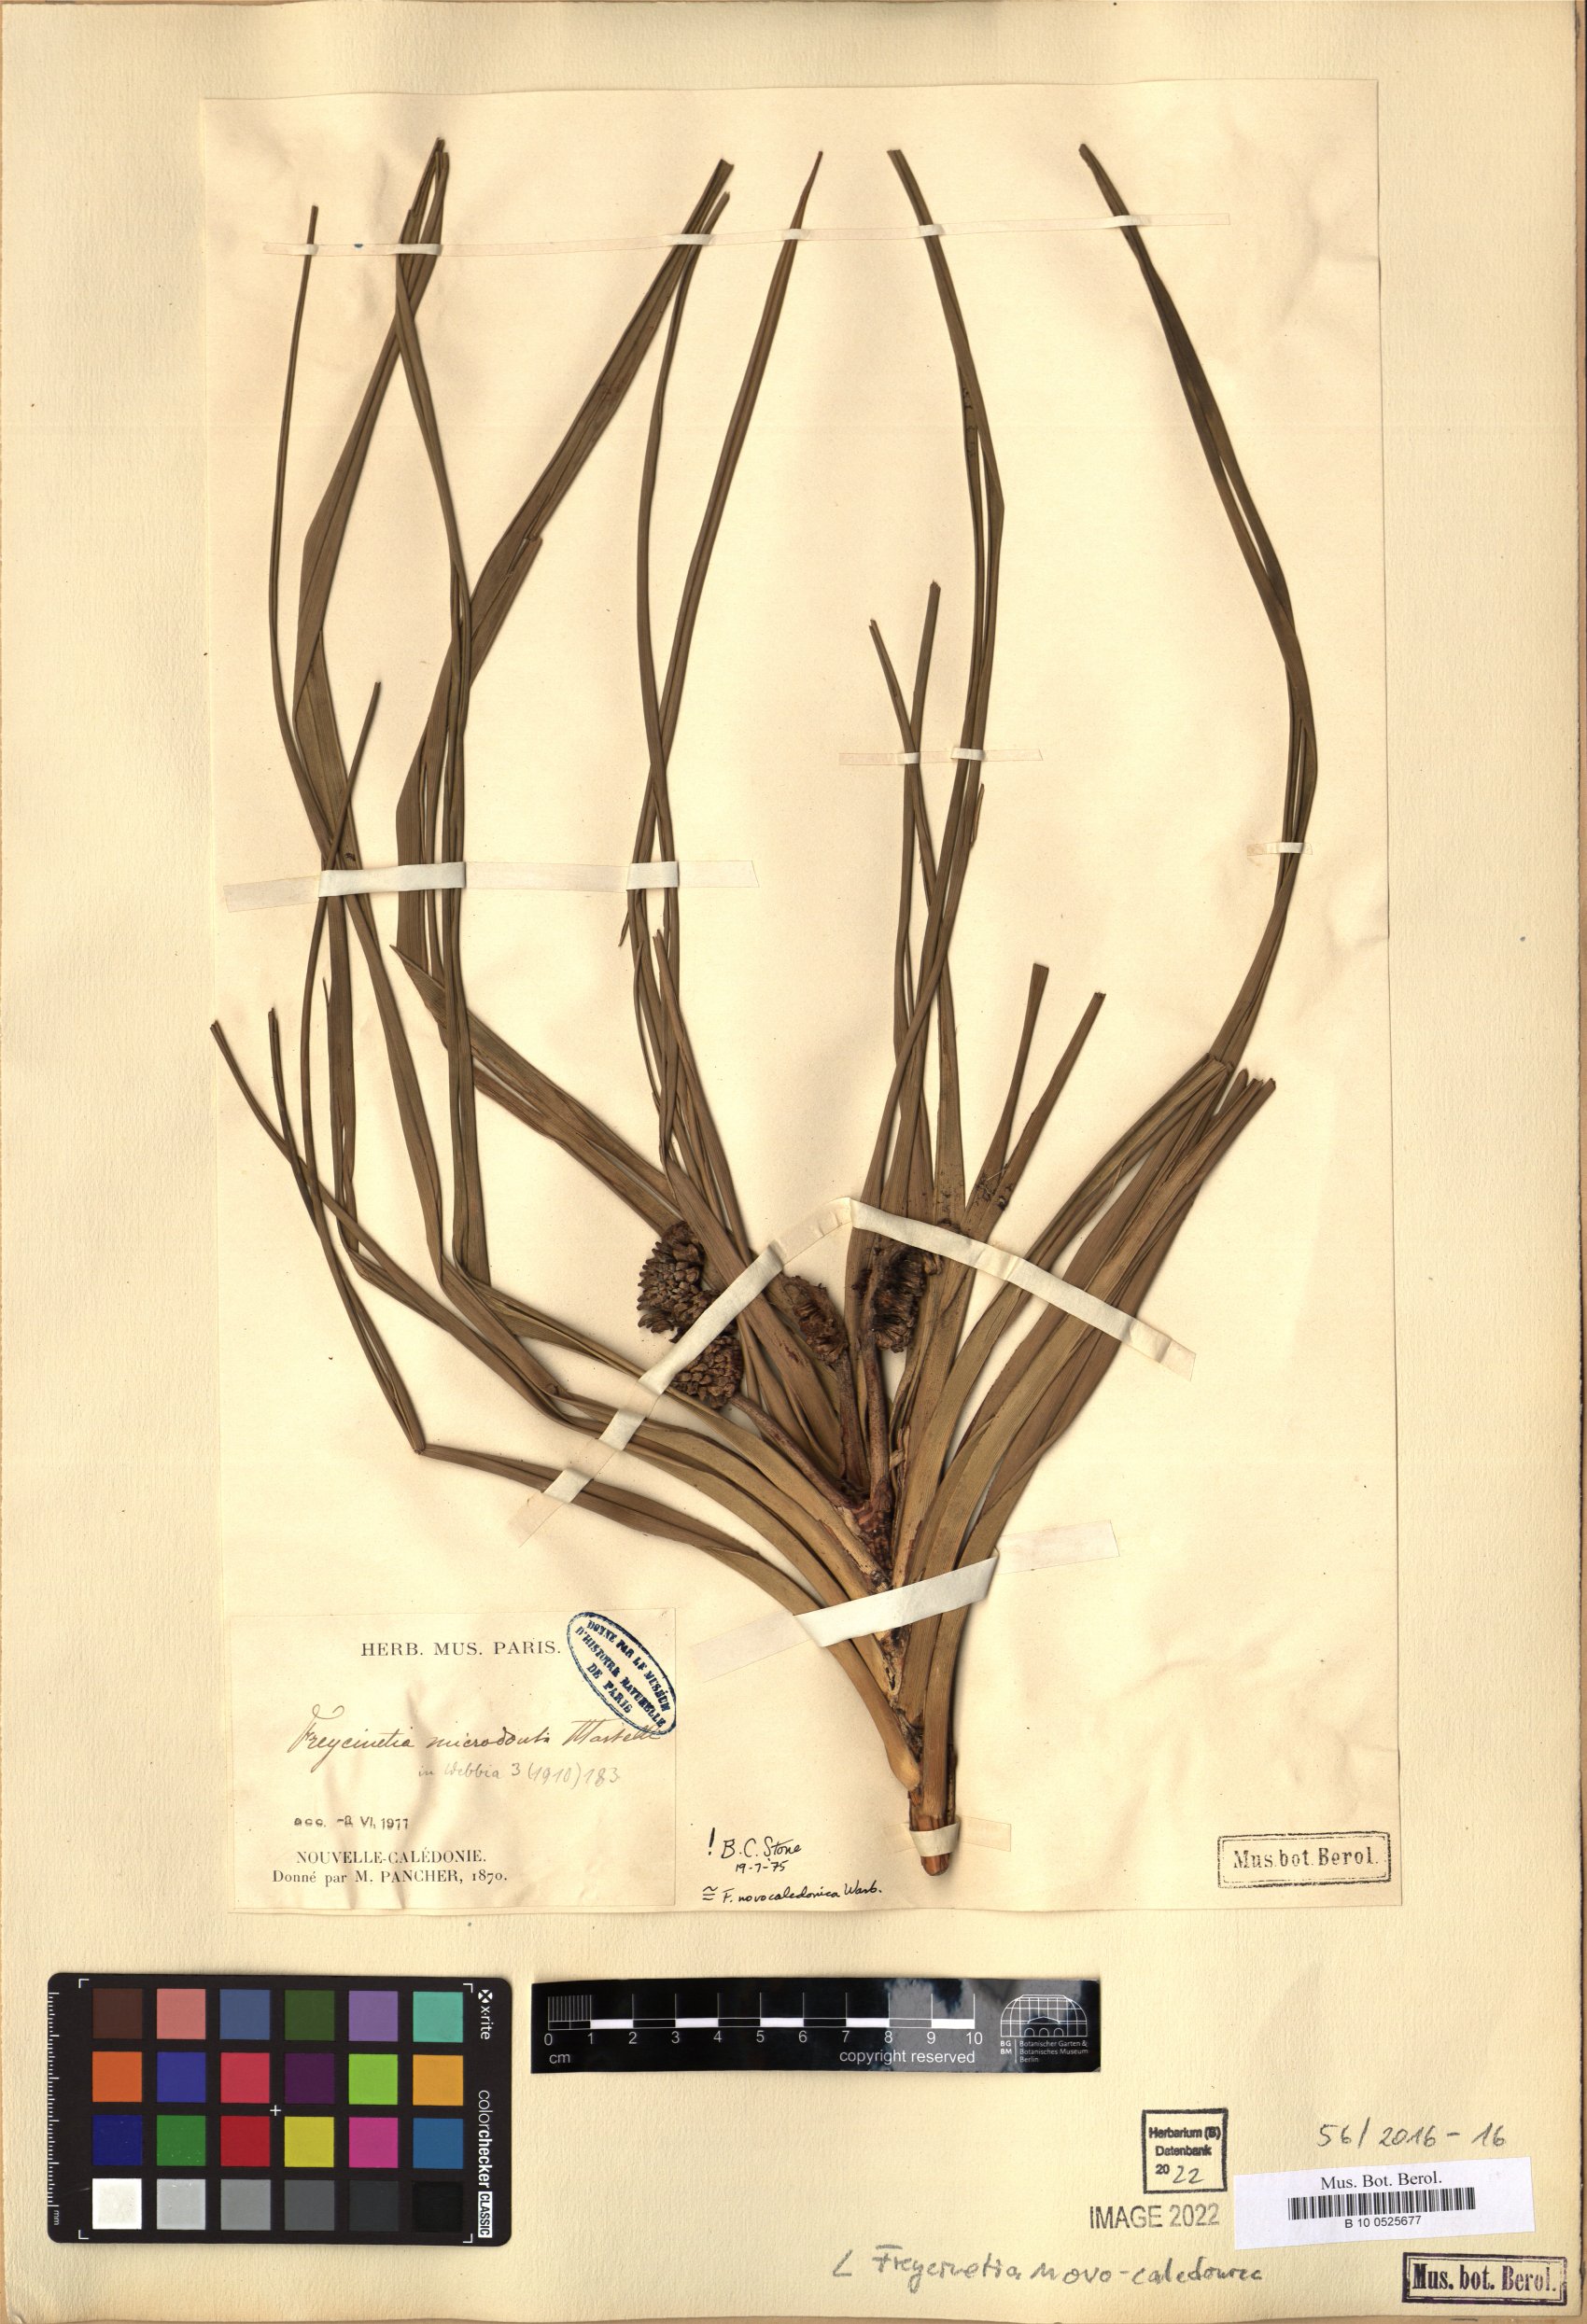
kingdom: Plantae
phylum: Tracheophyta
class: Liliopsida
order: Pandanales
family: Pandanaceae
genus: Freycinetia
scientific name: Freycinetia novocaledonica
